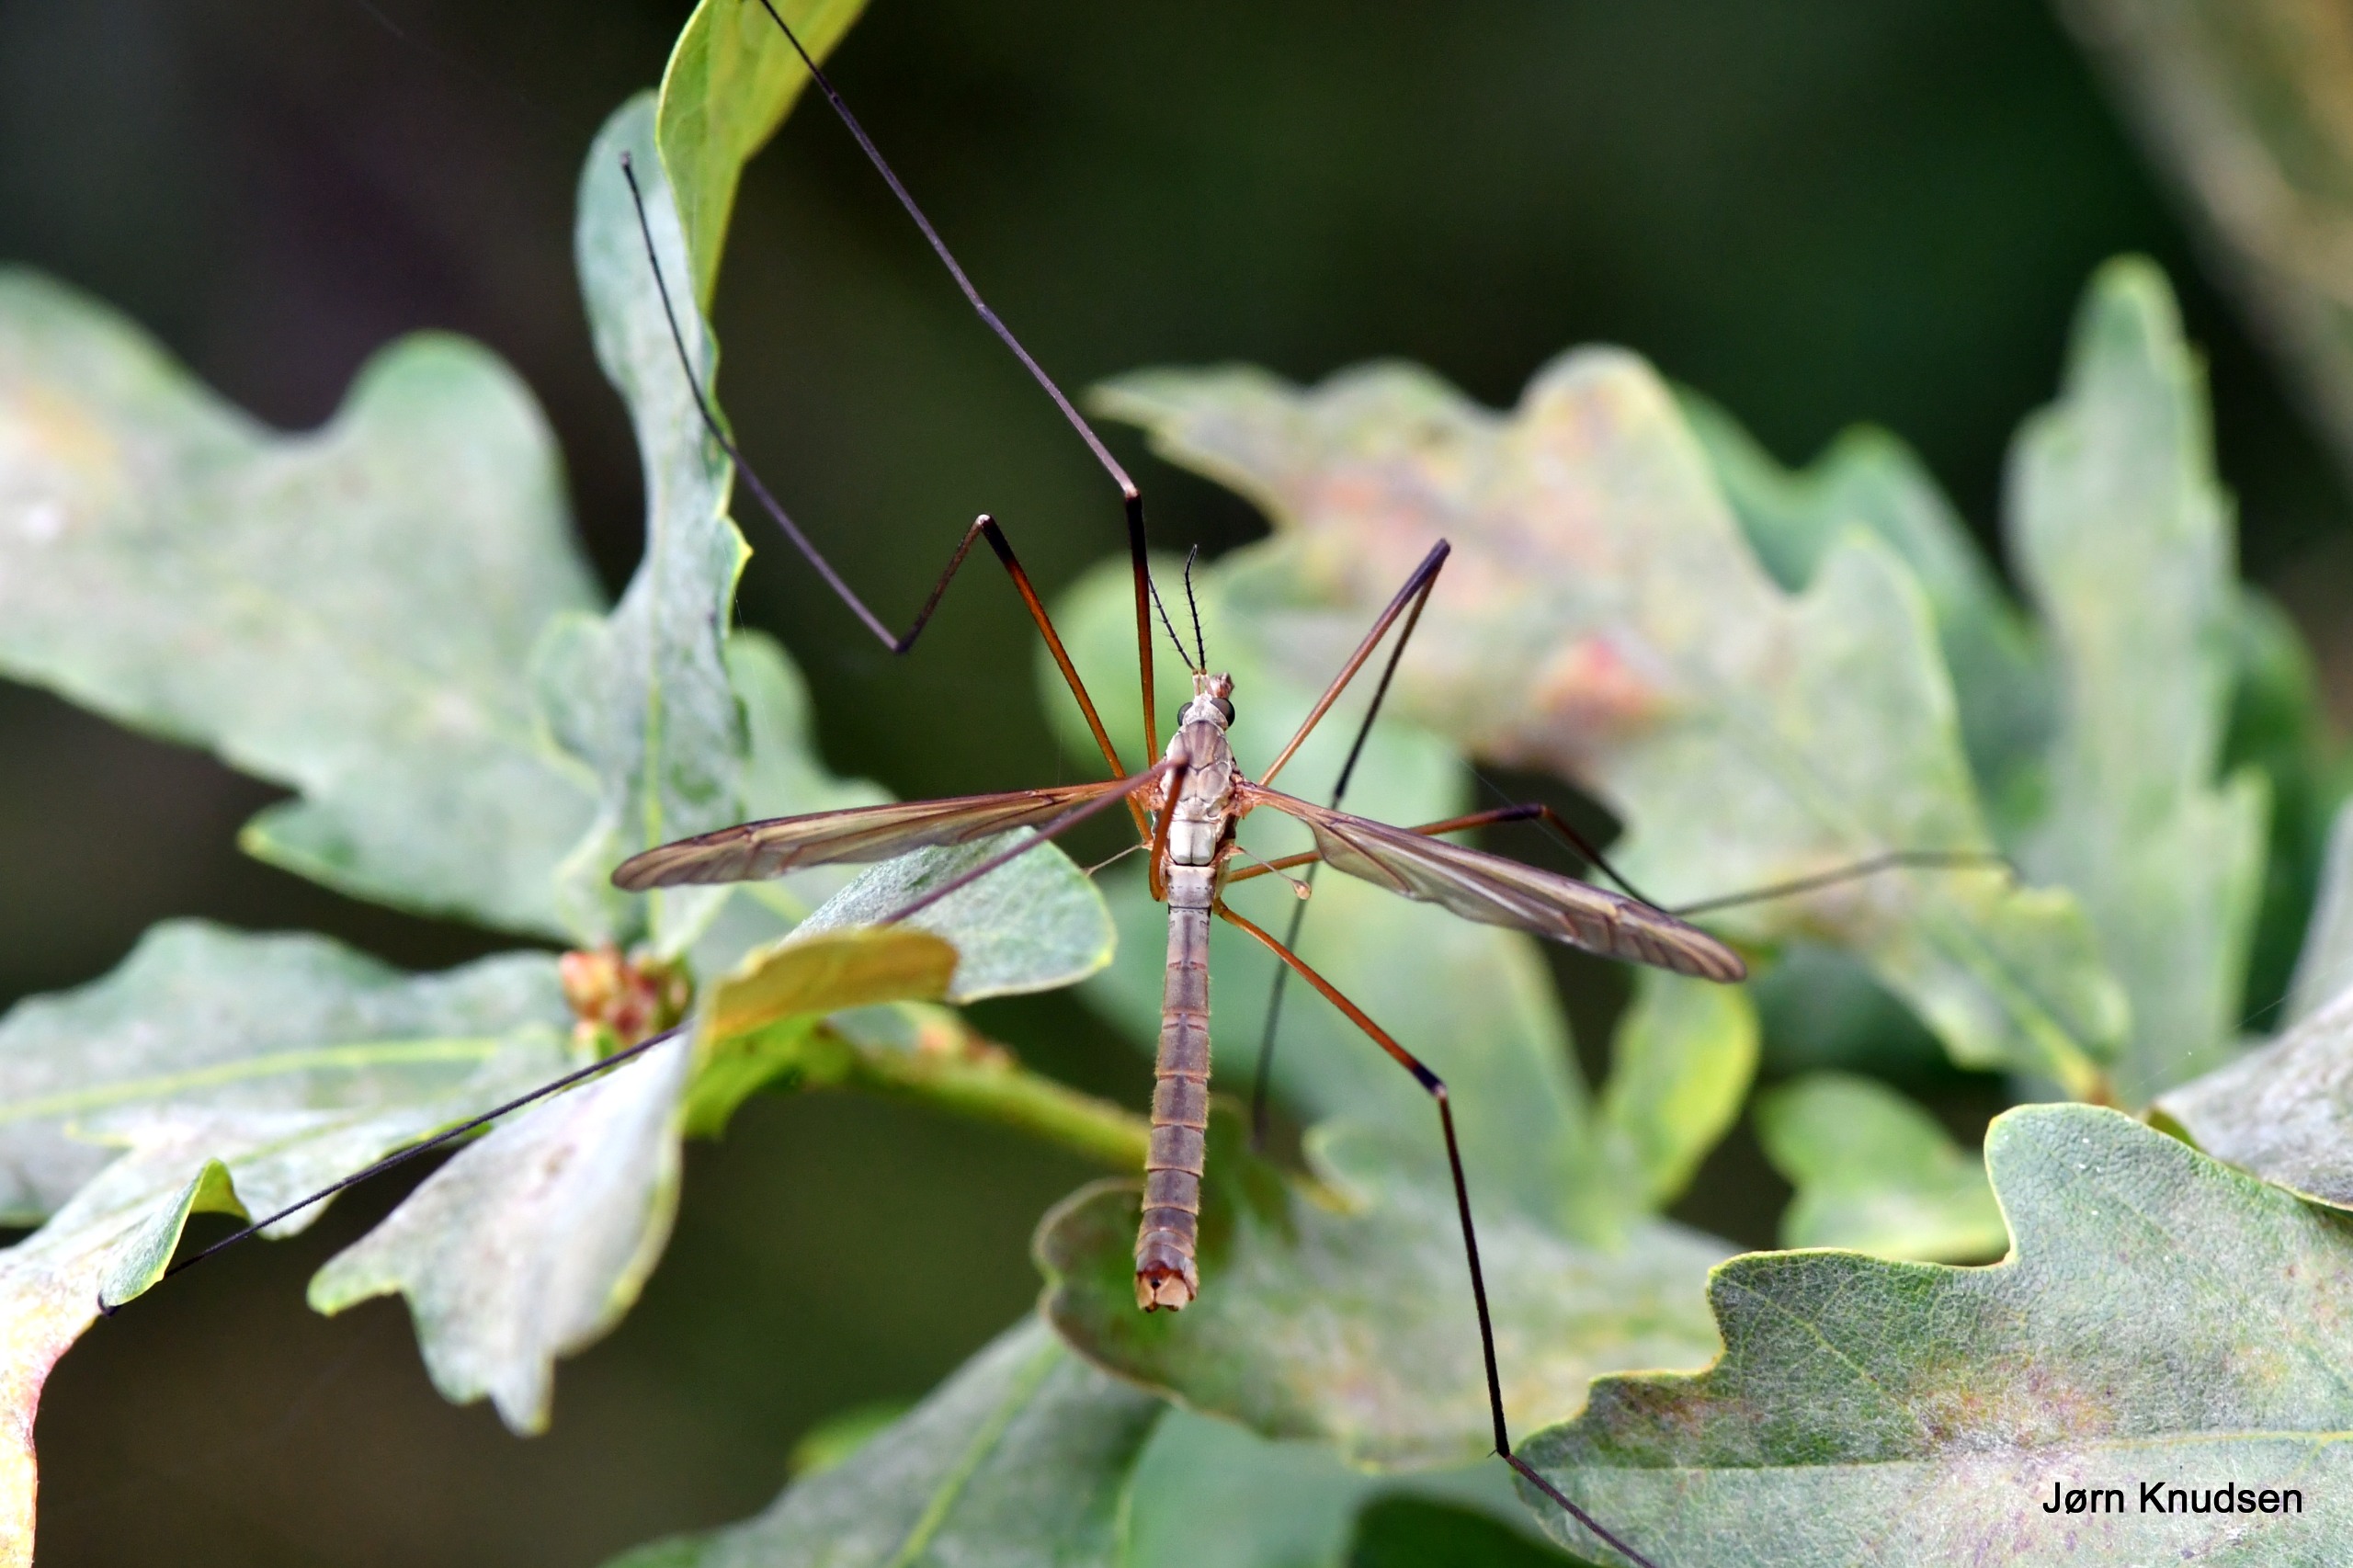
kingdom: Animalia
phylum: Arthropoda
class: Insecta
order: Diptera
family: Tipulidae
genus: Tipula
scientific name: Tipula paludosa
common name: Mosestankelben
